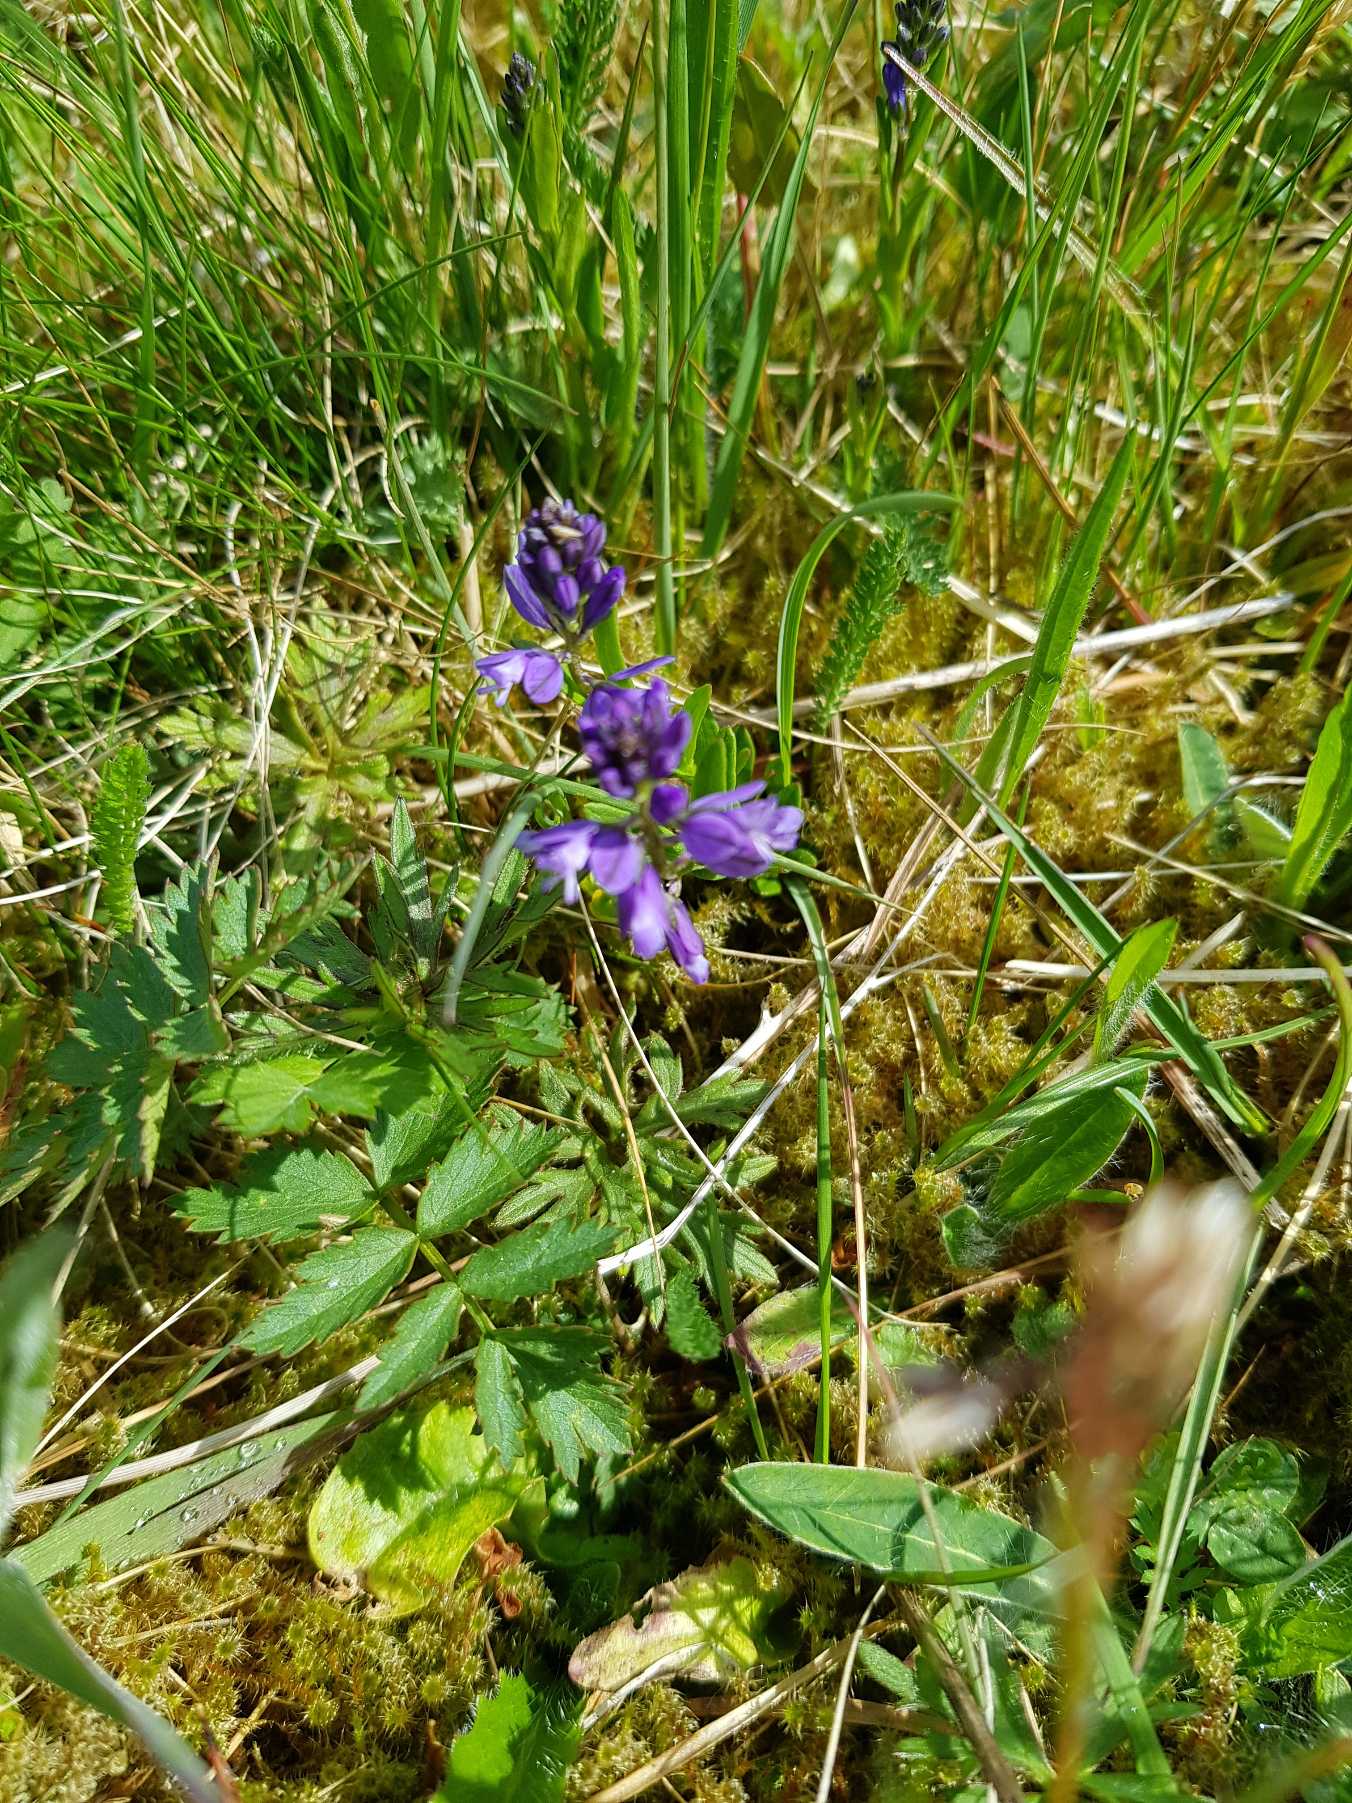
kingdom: Plantae
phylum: Tracheophyta
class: Magnoliopsida
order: Fabales
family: Polygalaceae
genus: Polygala
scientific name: Polygala vulgaris
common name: Almindelig mælkeurt
